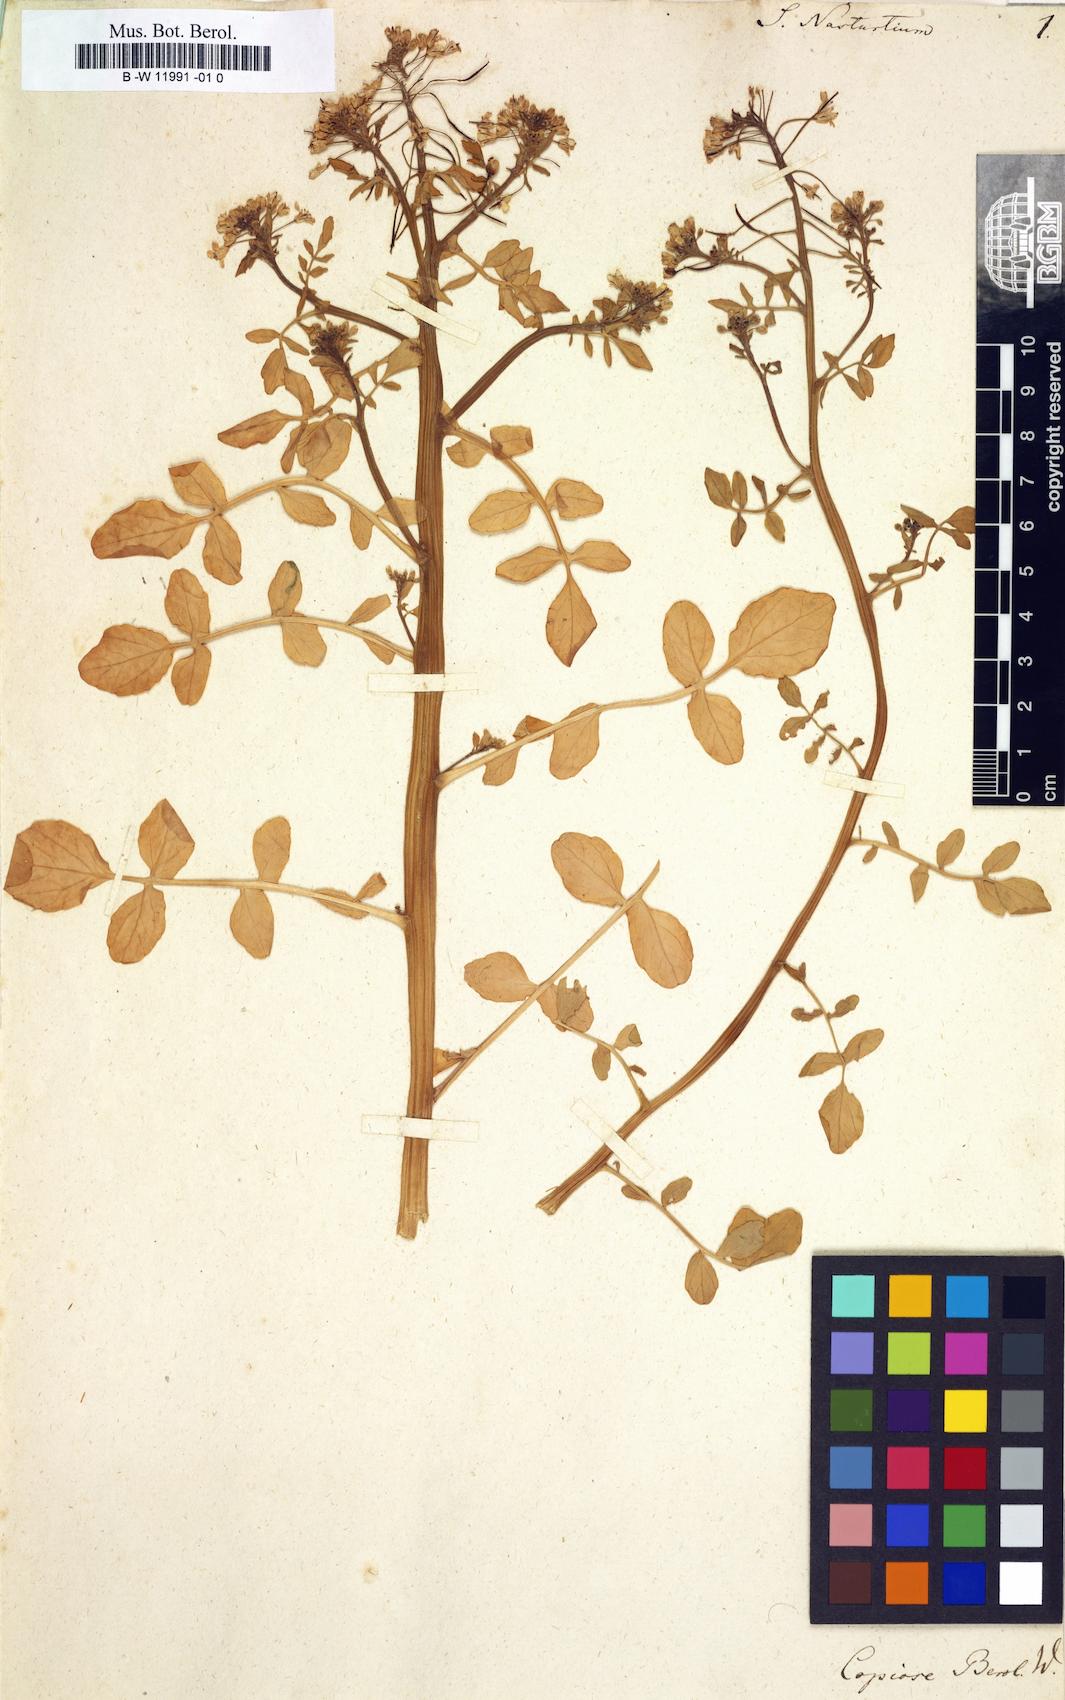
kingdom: Plantae
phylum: Tracheophyta
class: Magnoliopsida
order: Brassicales
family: Brassicaceae
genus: Nasturtium
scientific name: Nasturtium officinale
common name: Watercress
